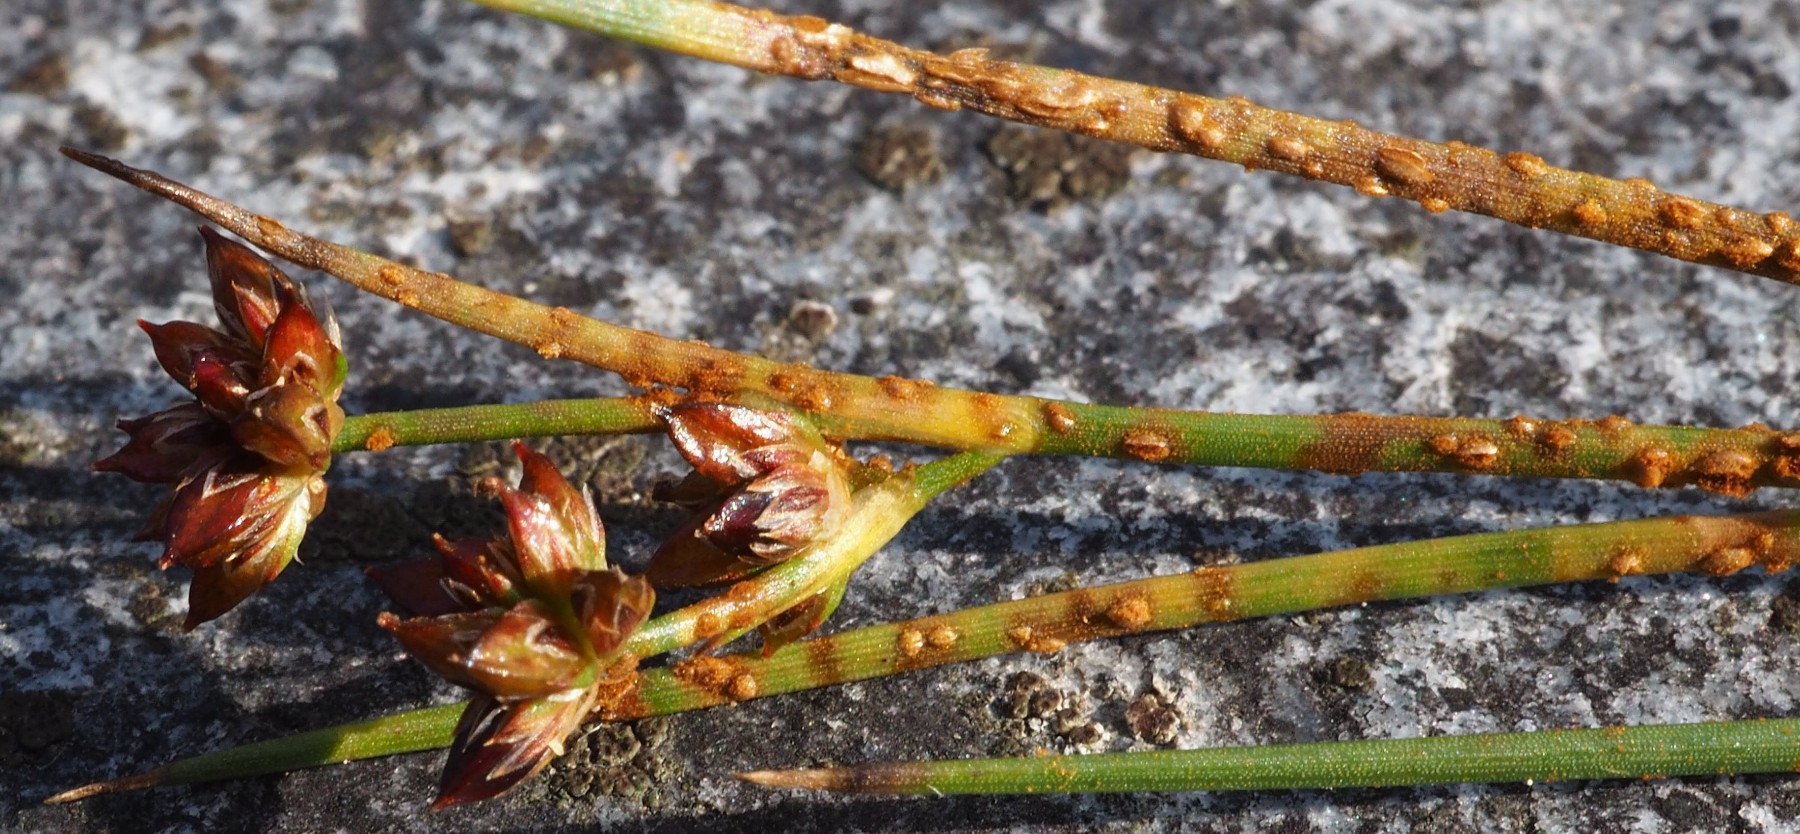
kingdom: Fungi
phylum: Basidiomycota
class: Pucciniomycetes
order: Pucciniales
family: Pucciniaceae
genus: Uromyces
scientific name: Uromyces junci
